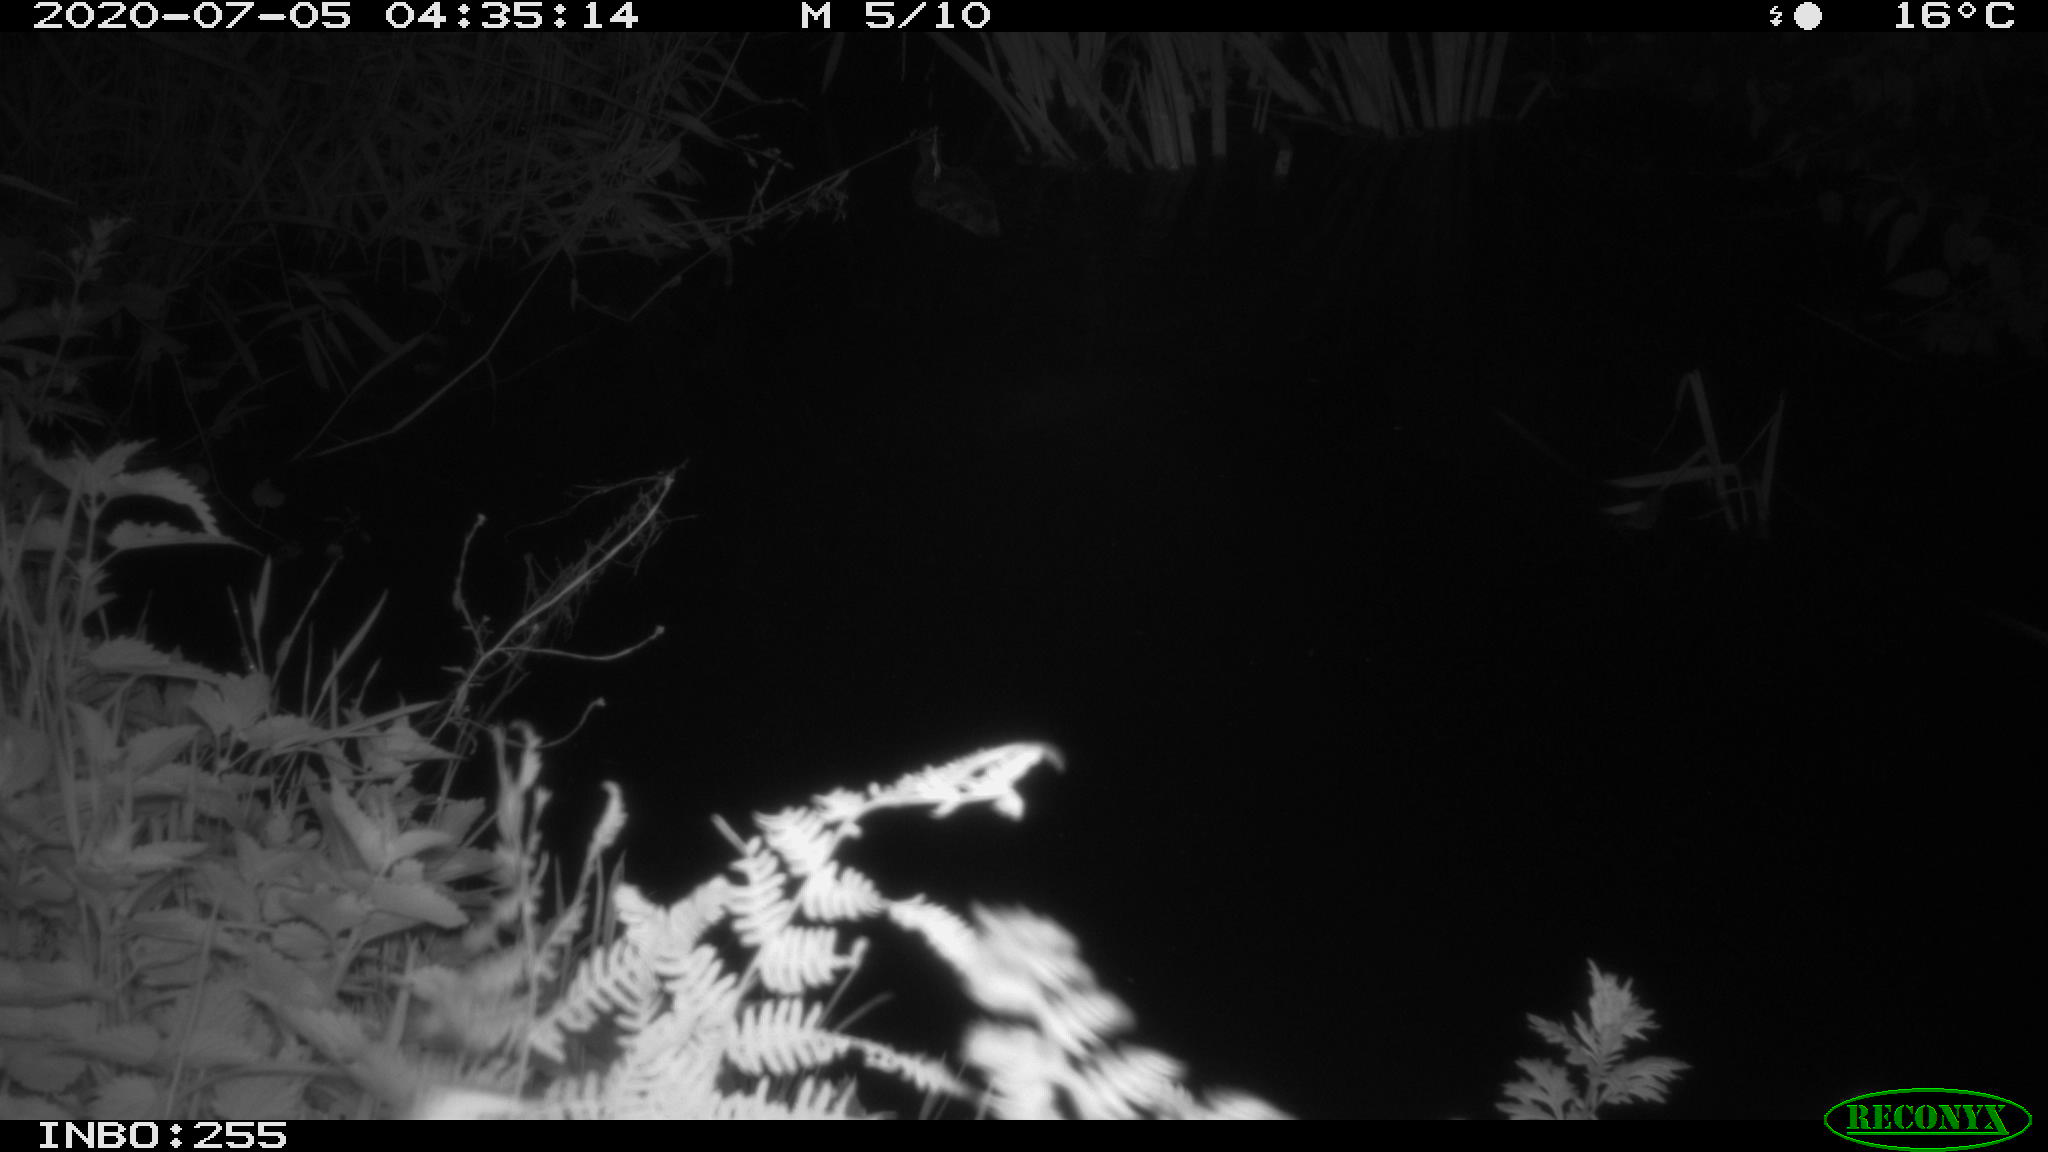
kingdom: Animalia
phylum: Chordata
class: Aves
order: Anseriformes
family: Anatidae
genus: Anas
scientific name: Anas platyrhynchos
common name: Mallard
